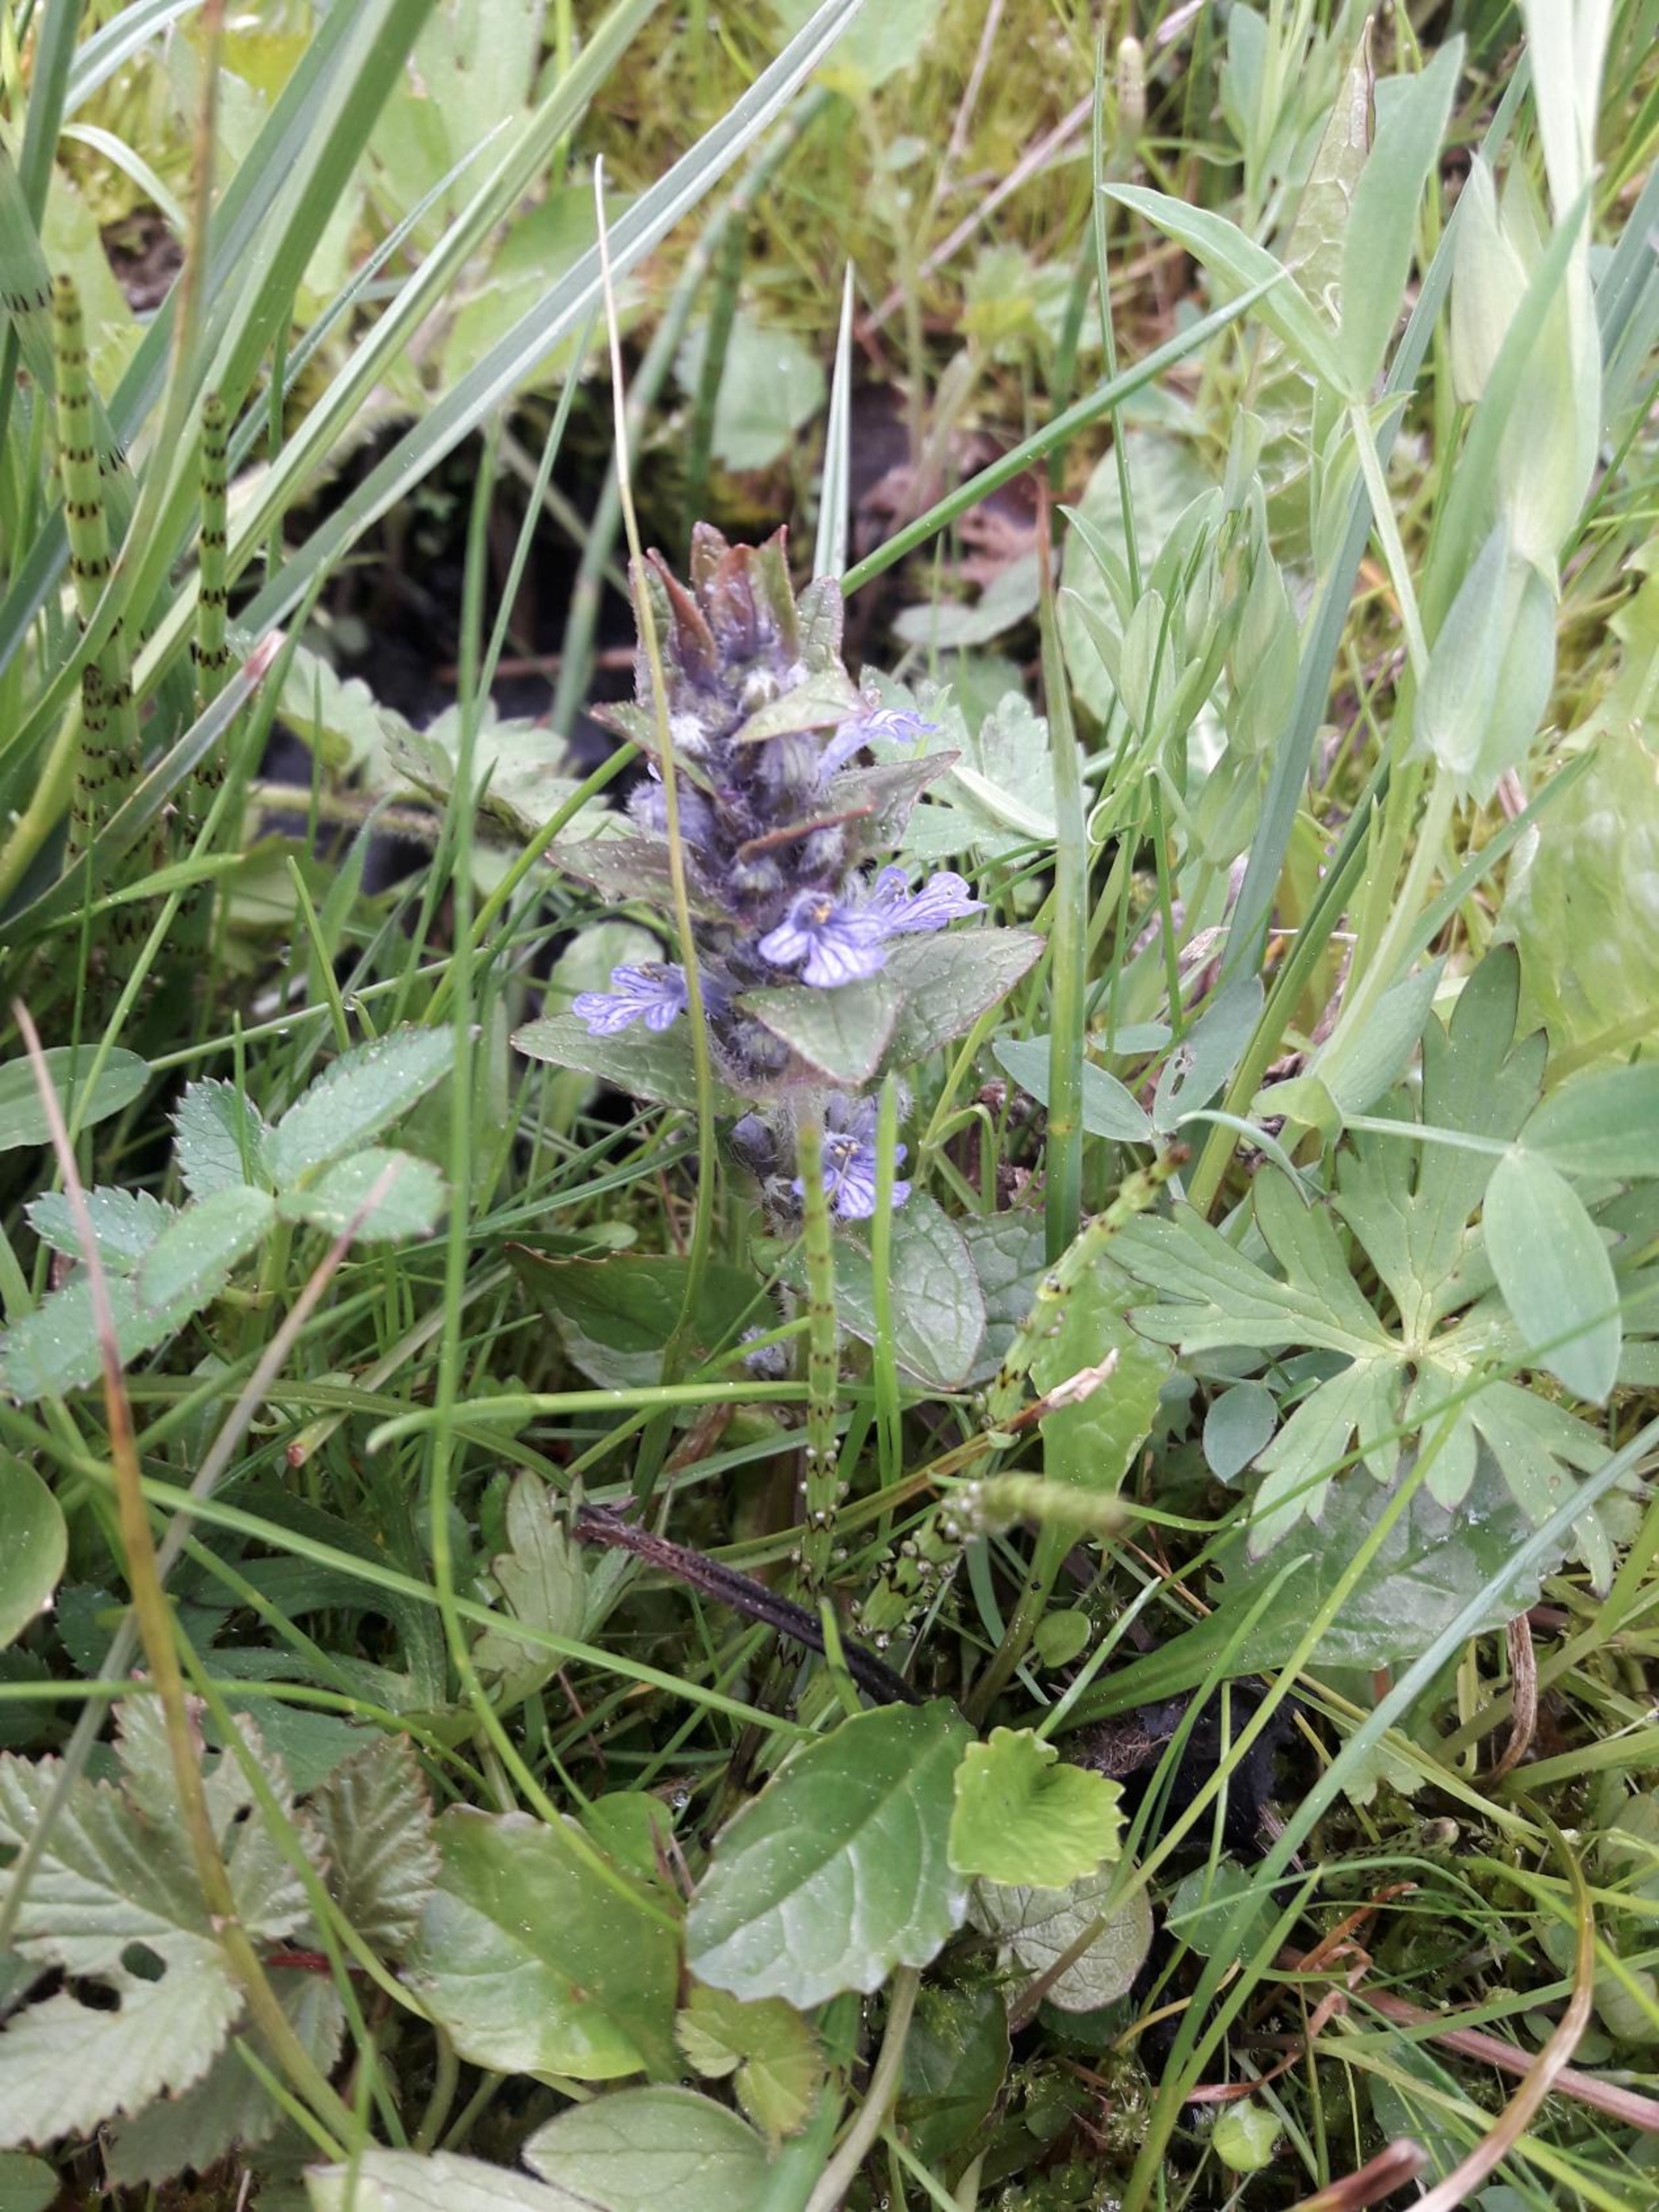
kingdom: Plantae
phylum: Tracheophyta
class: Magnoliopsida
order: Lamiales
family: Lamiaceae
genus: Ajuga
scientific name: Ajuga reptans
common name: Krybende læbeløs
